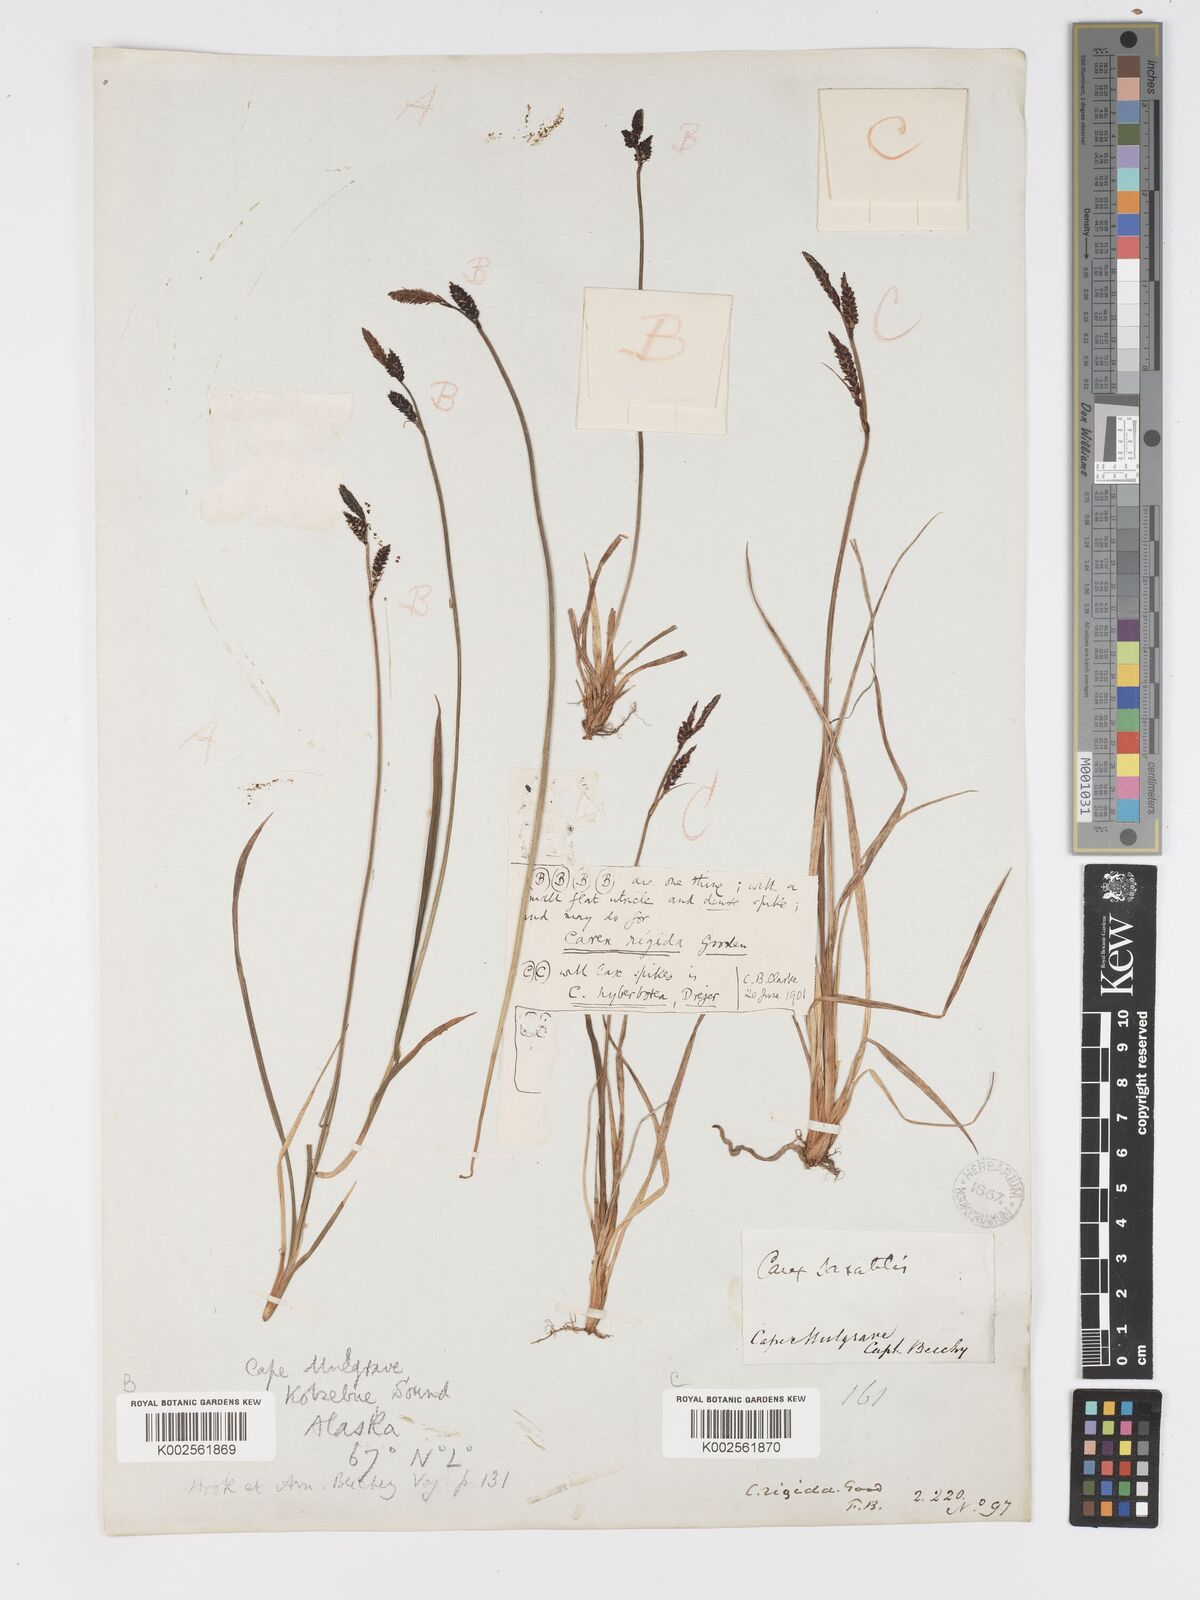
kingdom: Plantae
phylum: Tracheophyta
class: Liliopsida
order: Poales
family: Cyperaceae
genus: Carex
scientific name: Carex bigelowii
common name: Stiff sedge
